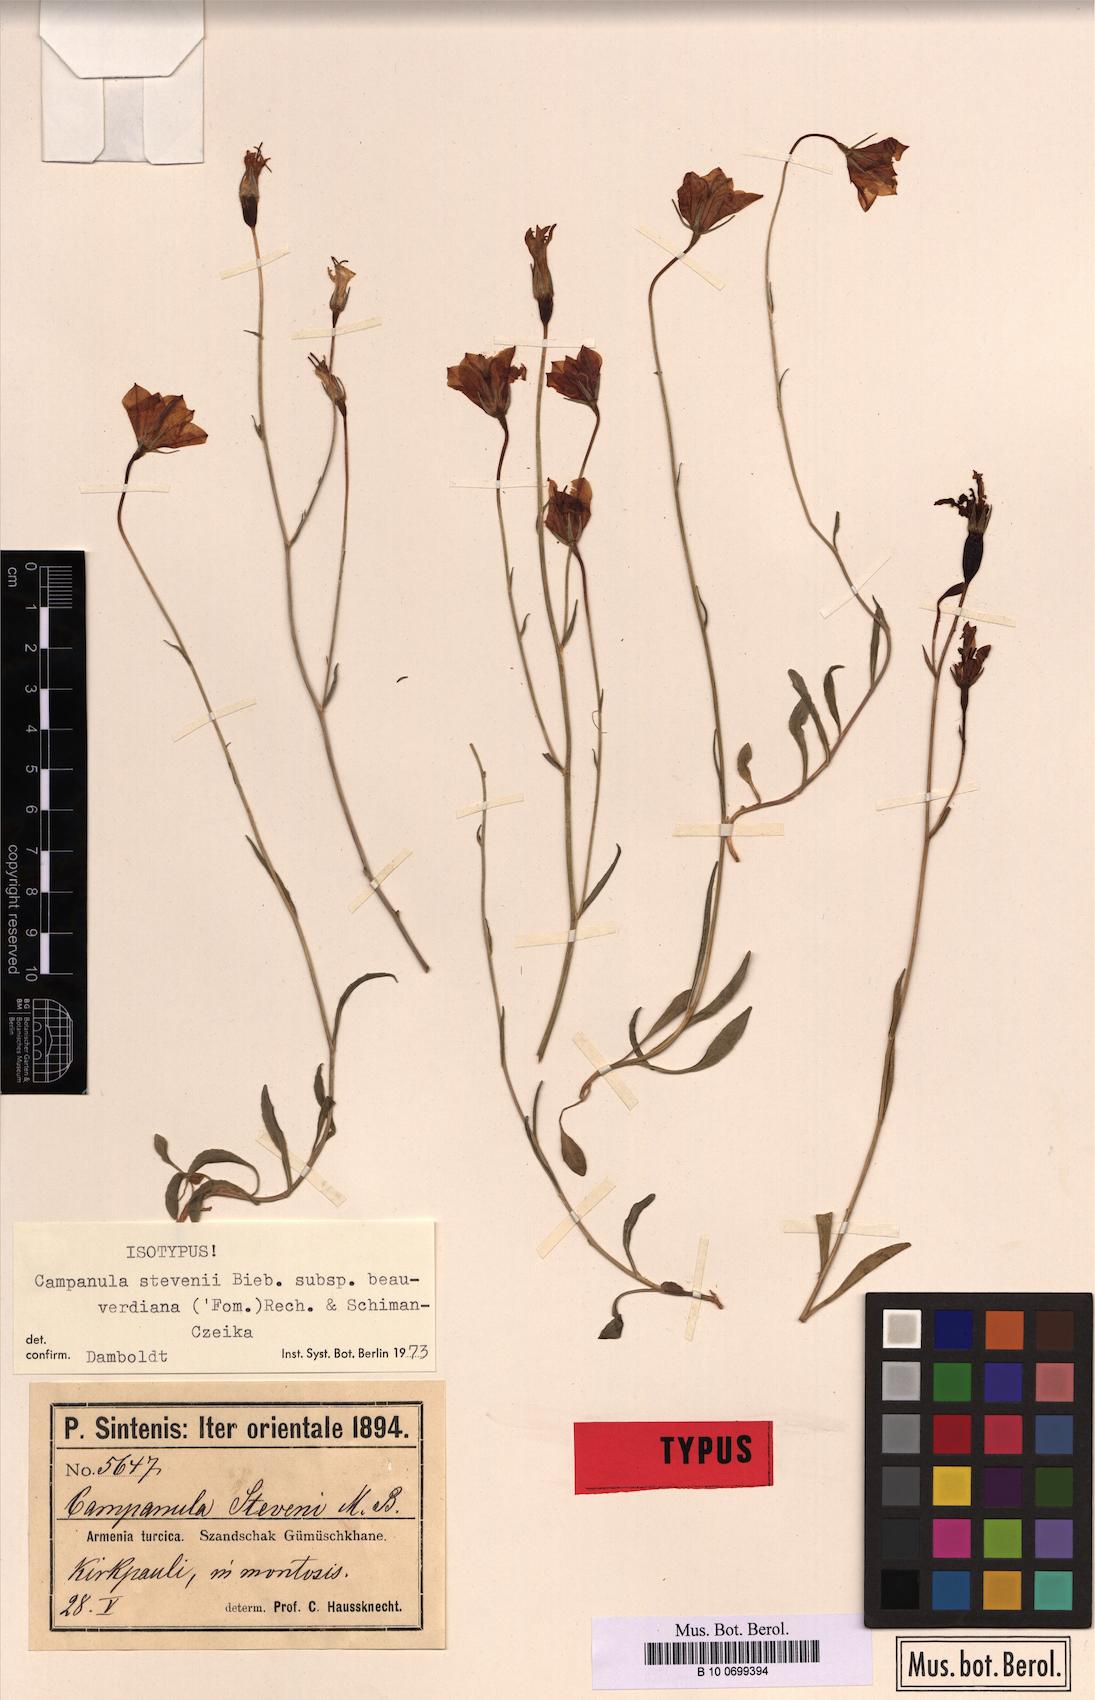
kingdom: Plantae
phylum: Tracheophyta
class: Magnoliopsida
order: Asterales
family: Campanulaceae
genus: Campanula
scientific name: Campanula stevenii
